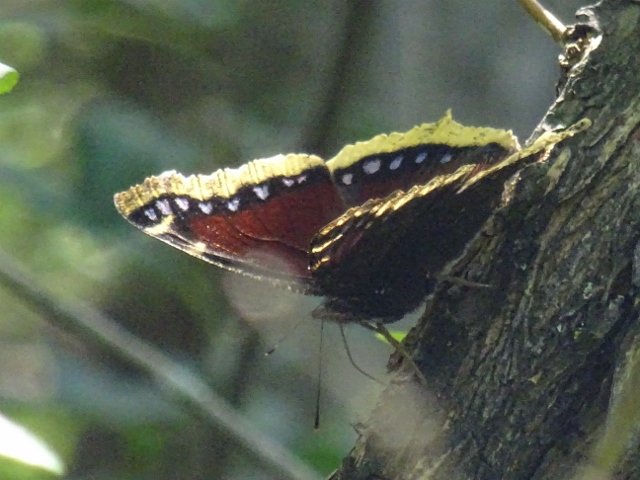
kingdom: Animalia
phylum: Arthropoda
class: Insecta
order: Lepidoptera
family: Nymphalidae
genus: Nymphalis
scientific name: Nymphalis antiopa
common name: Mourning Cloak
